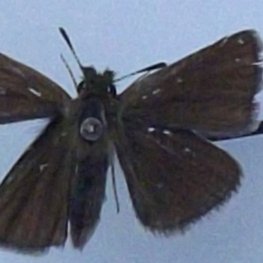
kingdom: Animalia
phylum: Arthropoda
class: Insecta
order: Lepidoptera
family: Hesperiidae
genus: Oarisma
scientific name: Oarisma garita
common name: Garita Skipperling
